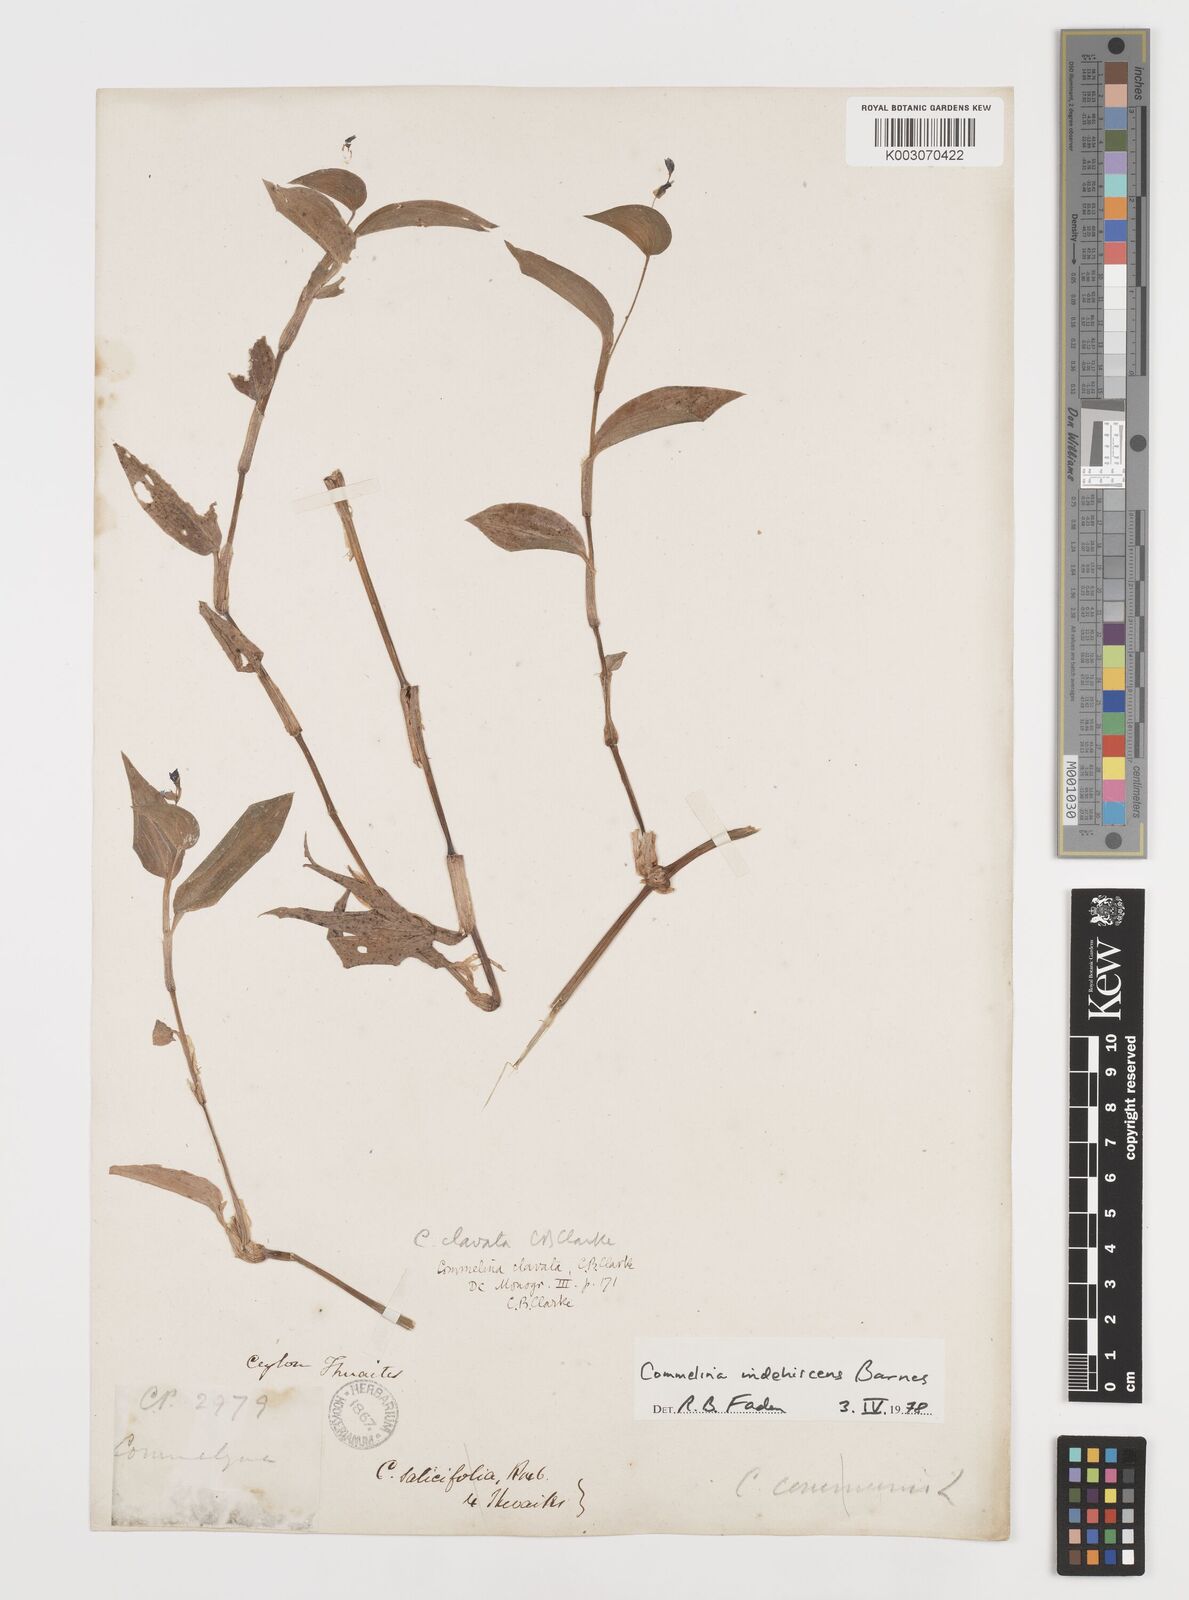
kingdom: Plantae
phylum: Tracheophyta
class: Liliopsida
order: Commelinales
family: Commelinaceae
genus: Commelina
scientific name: Commelina indehiscens
